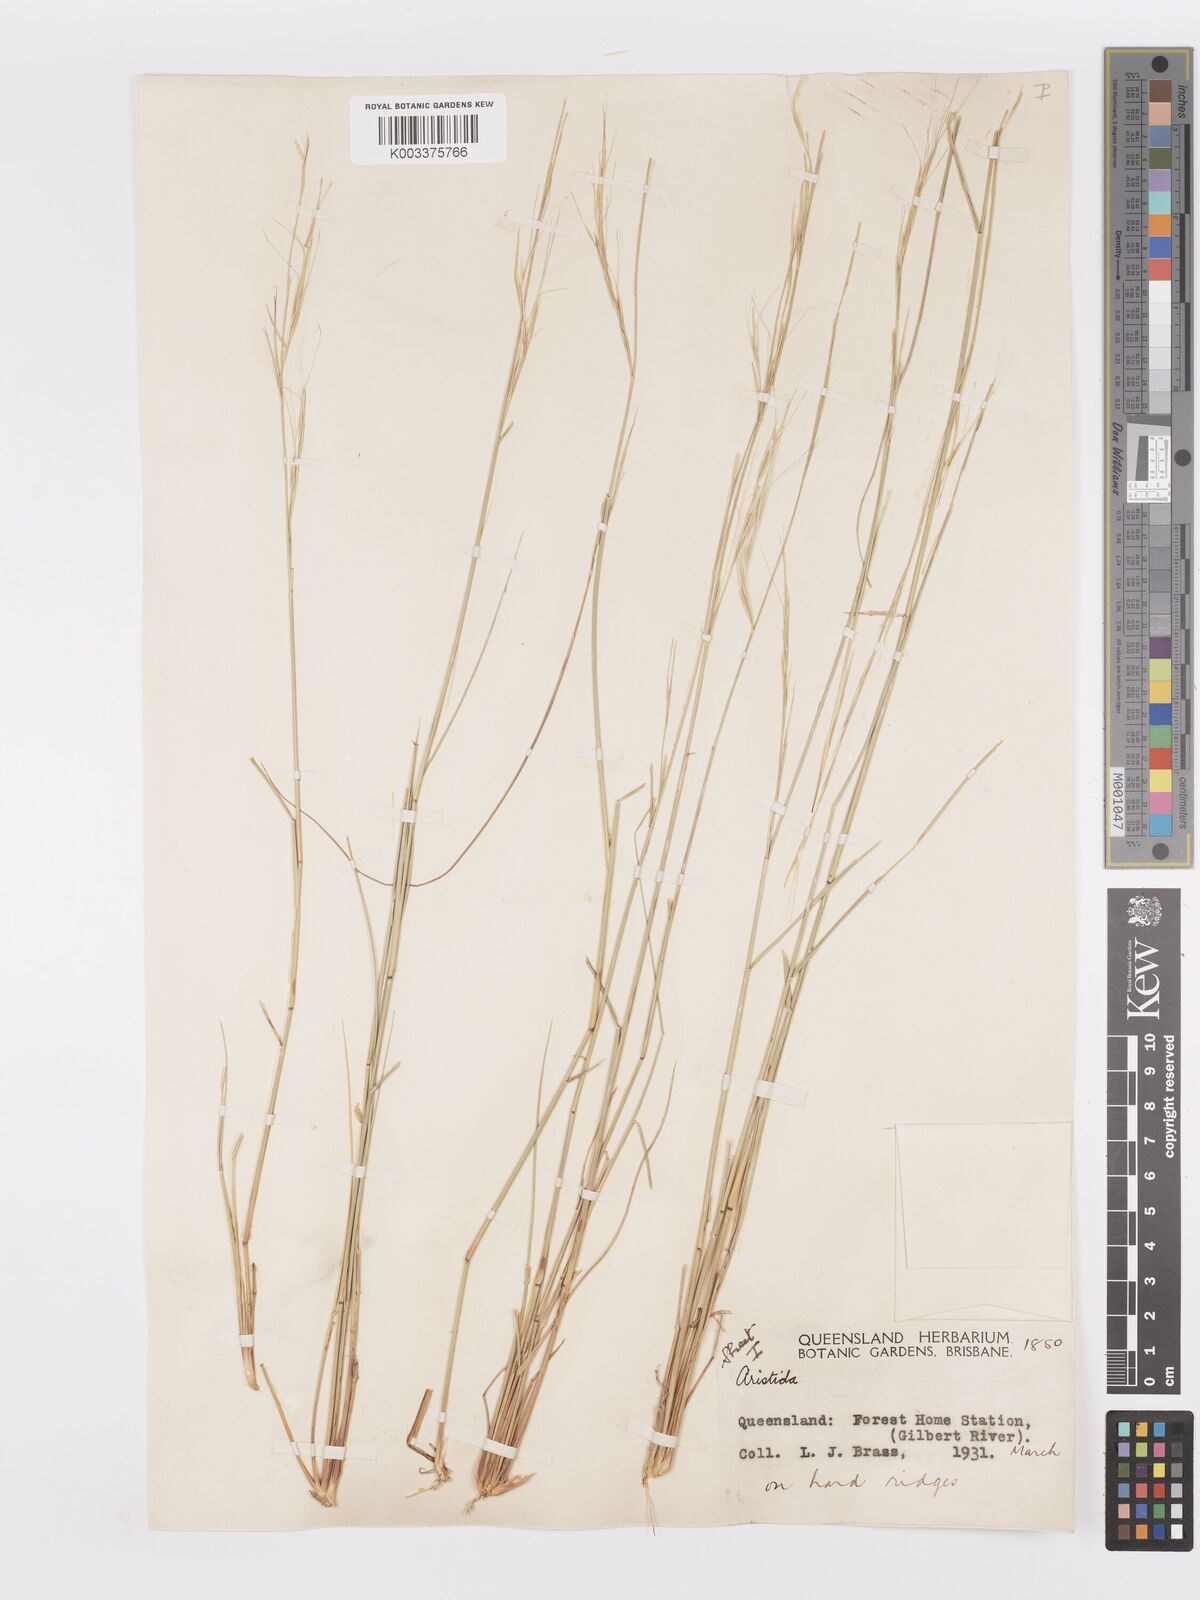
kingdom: Plantae
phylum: Tracheophyta
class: Liliopsida
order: Poales
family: Poaceae
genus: Aristida
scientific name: Aristida
